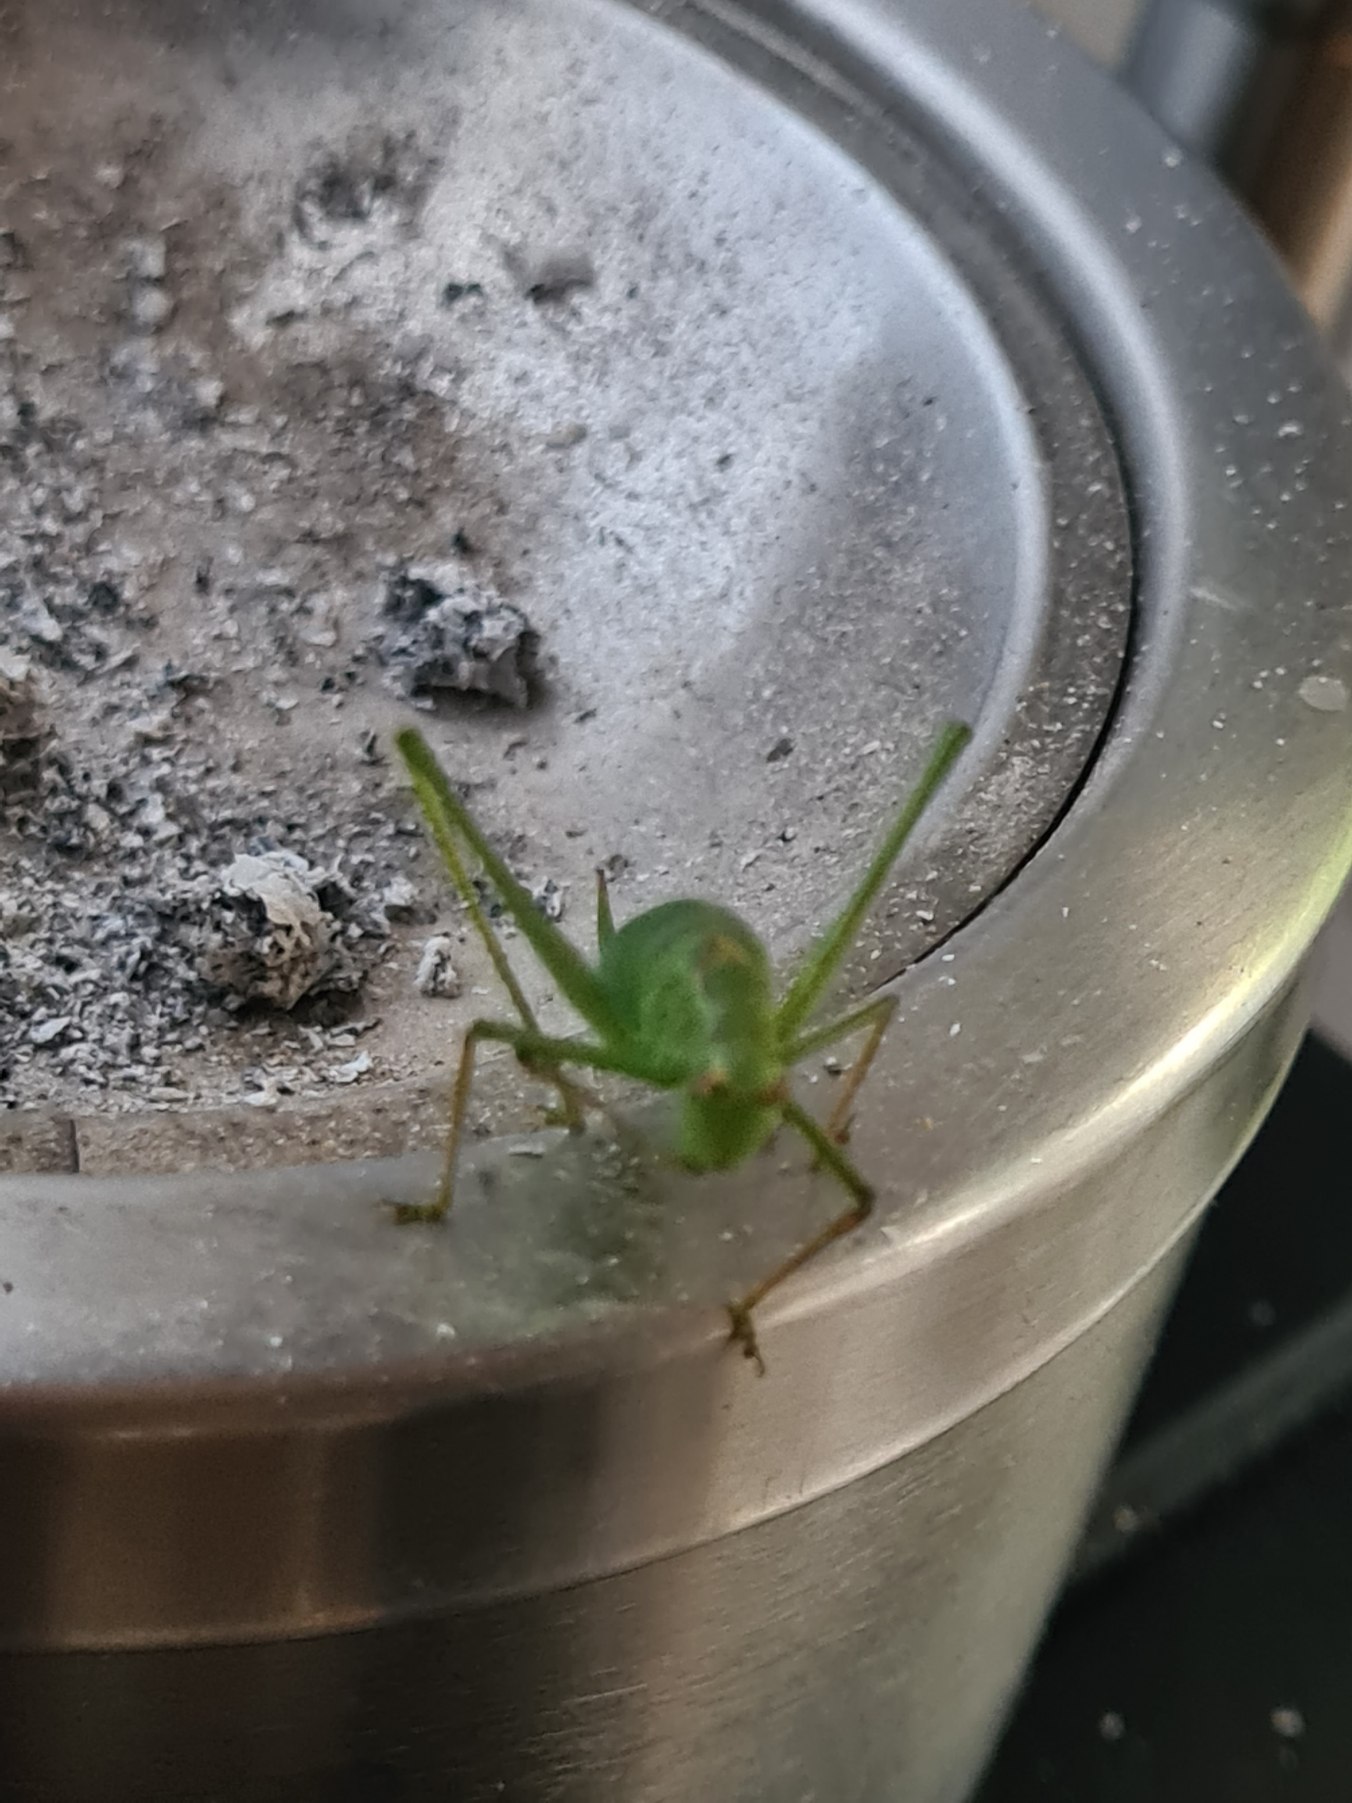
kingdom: Animalia
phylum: Arthropoda
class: Insecta
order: Orthoptera
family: Tettigoniidae
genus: Leptophyes
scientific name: Leptophyes punctatissima
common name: Krumknivgræshoppe
